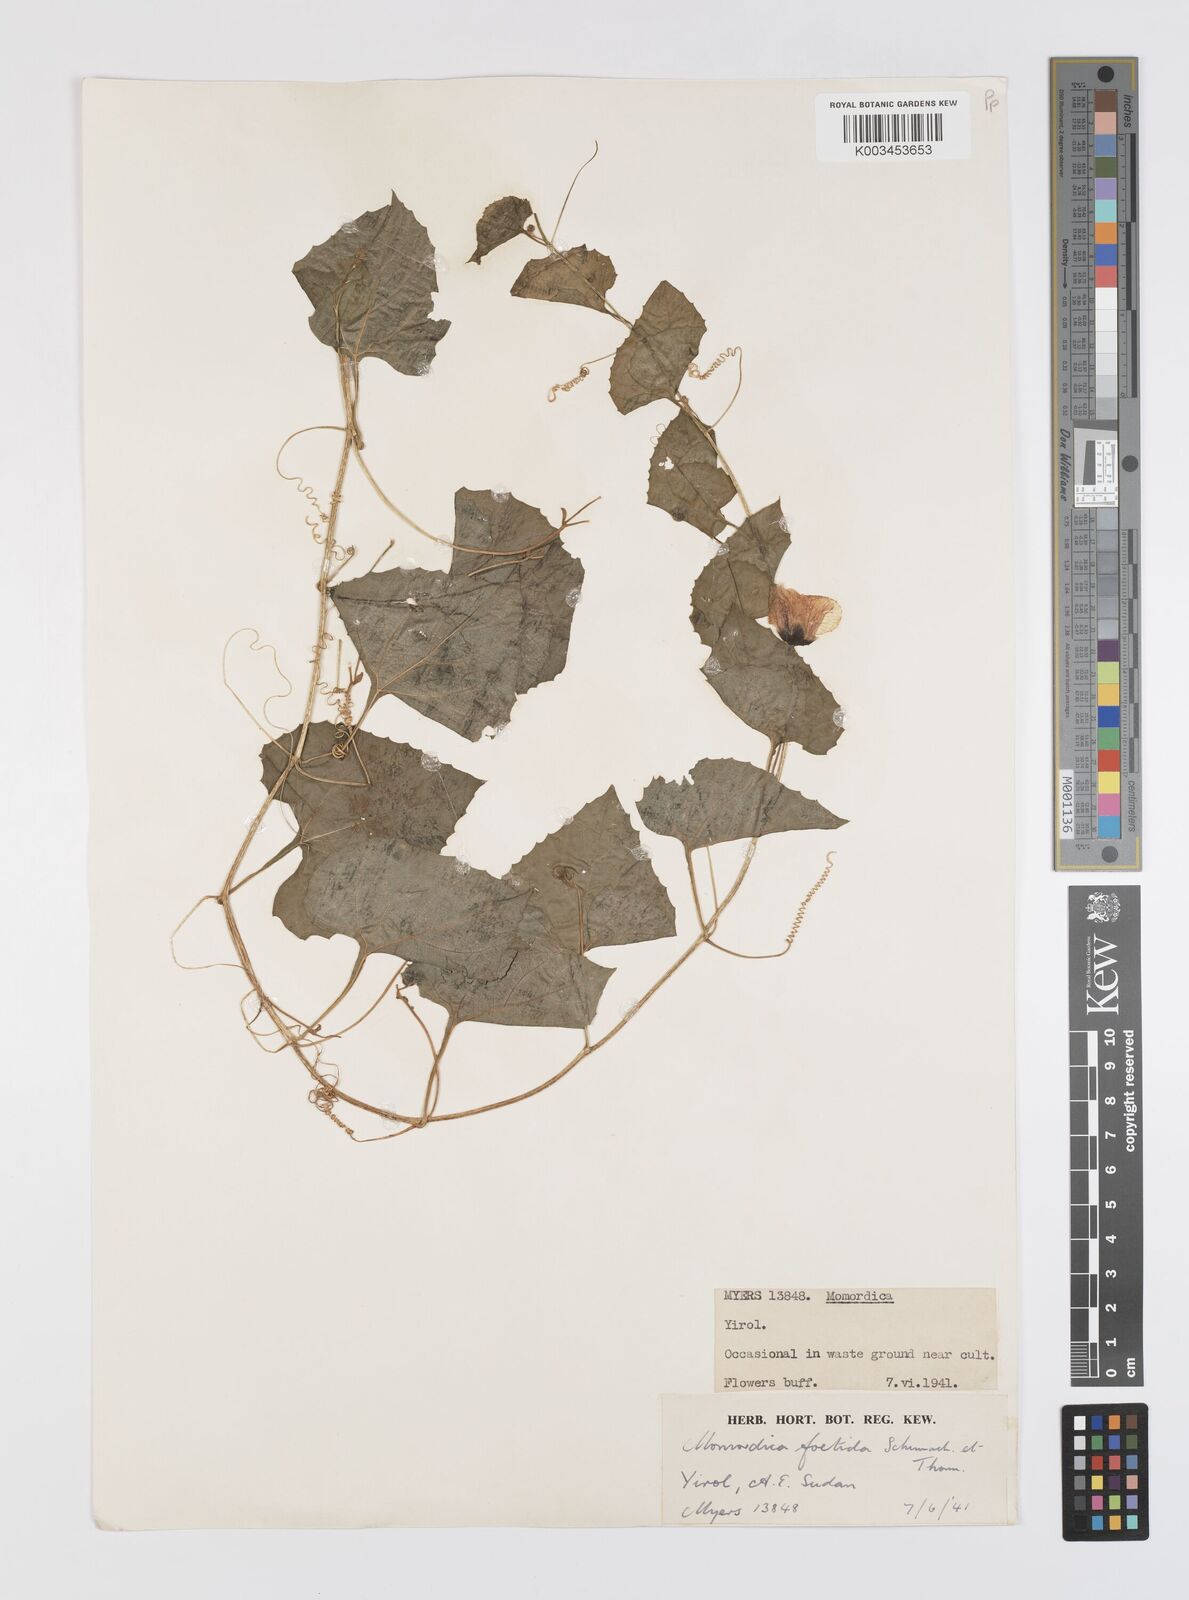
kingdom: Plantae
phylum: Tracheophyta
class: Magnoliopsida
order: Cucurbitales
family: Cucurbitaceae
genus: Momordica
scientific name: Momordica foetida
